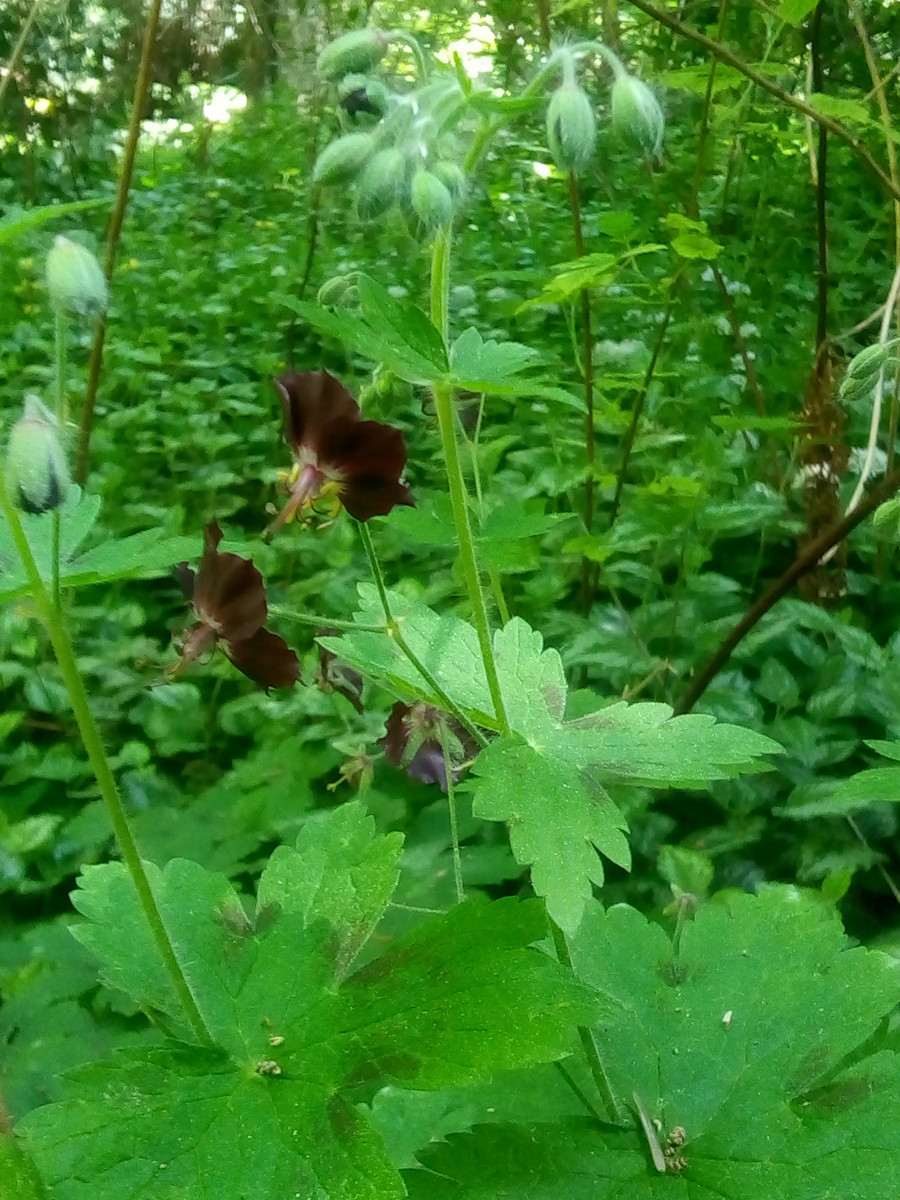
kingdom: Fungi
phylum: Ascomycota
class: Leotiomycetes
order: Helotiales
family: Erysiphaceae
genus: Podosphaera
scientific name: Podosphaera fugax
